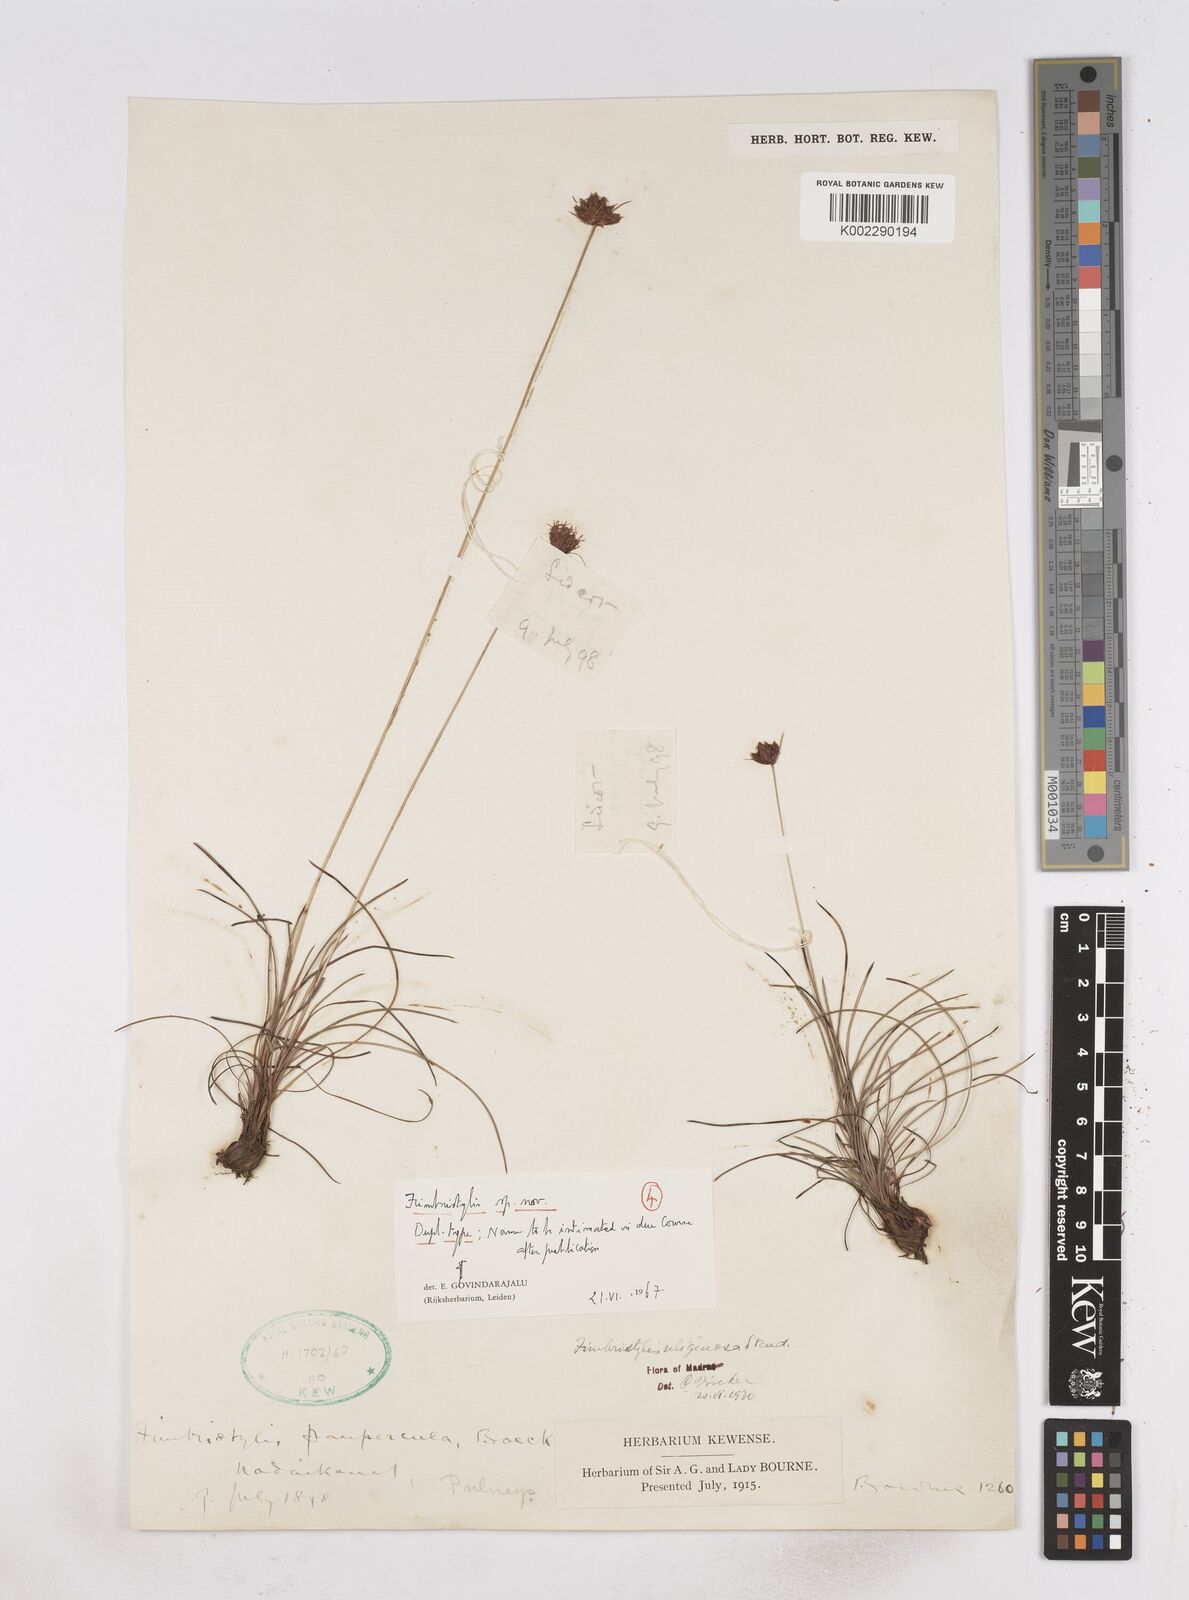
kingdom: Plantae
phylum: Tracheophyta
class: Liliopsida
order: Poales
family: Cyperaceae
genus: Fimbristylis
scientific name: Fimbristylis
